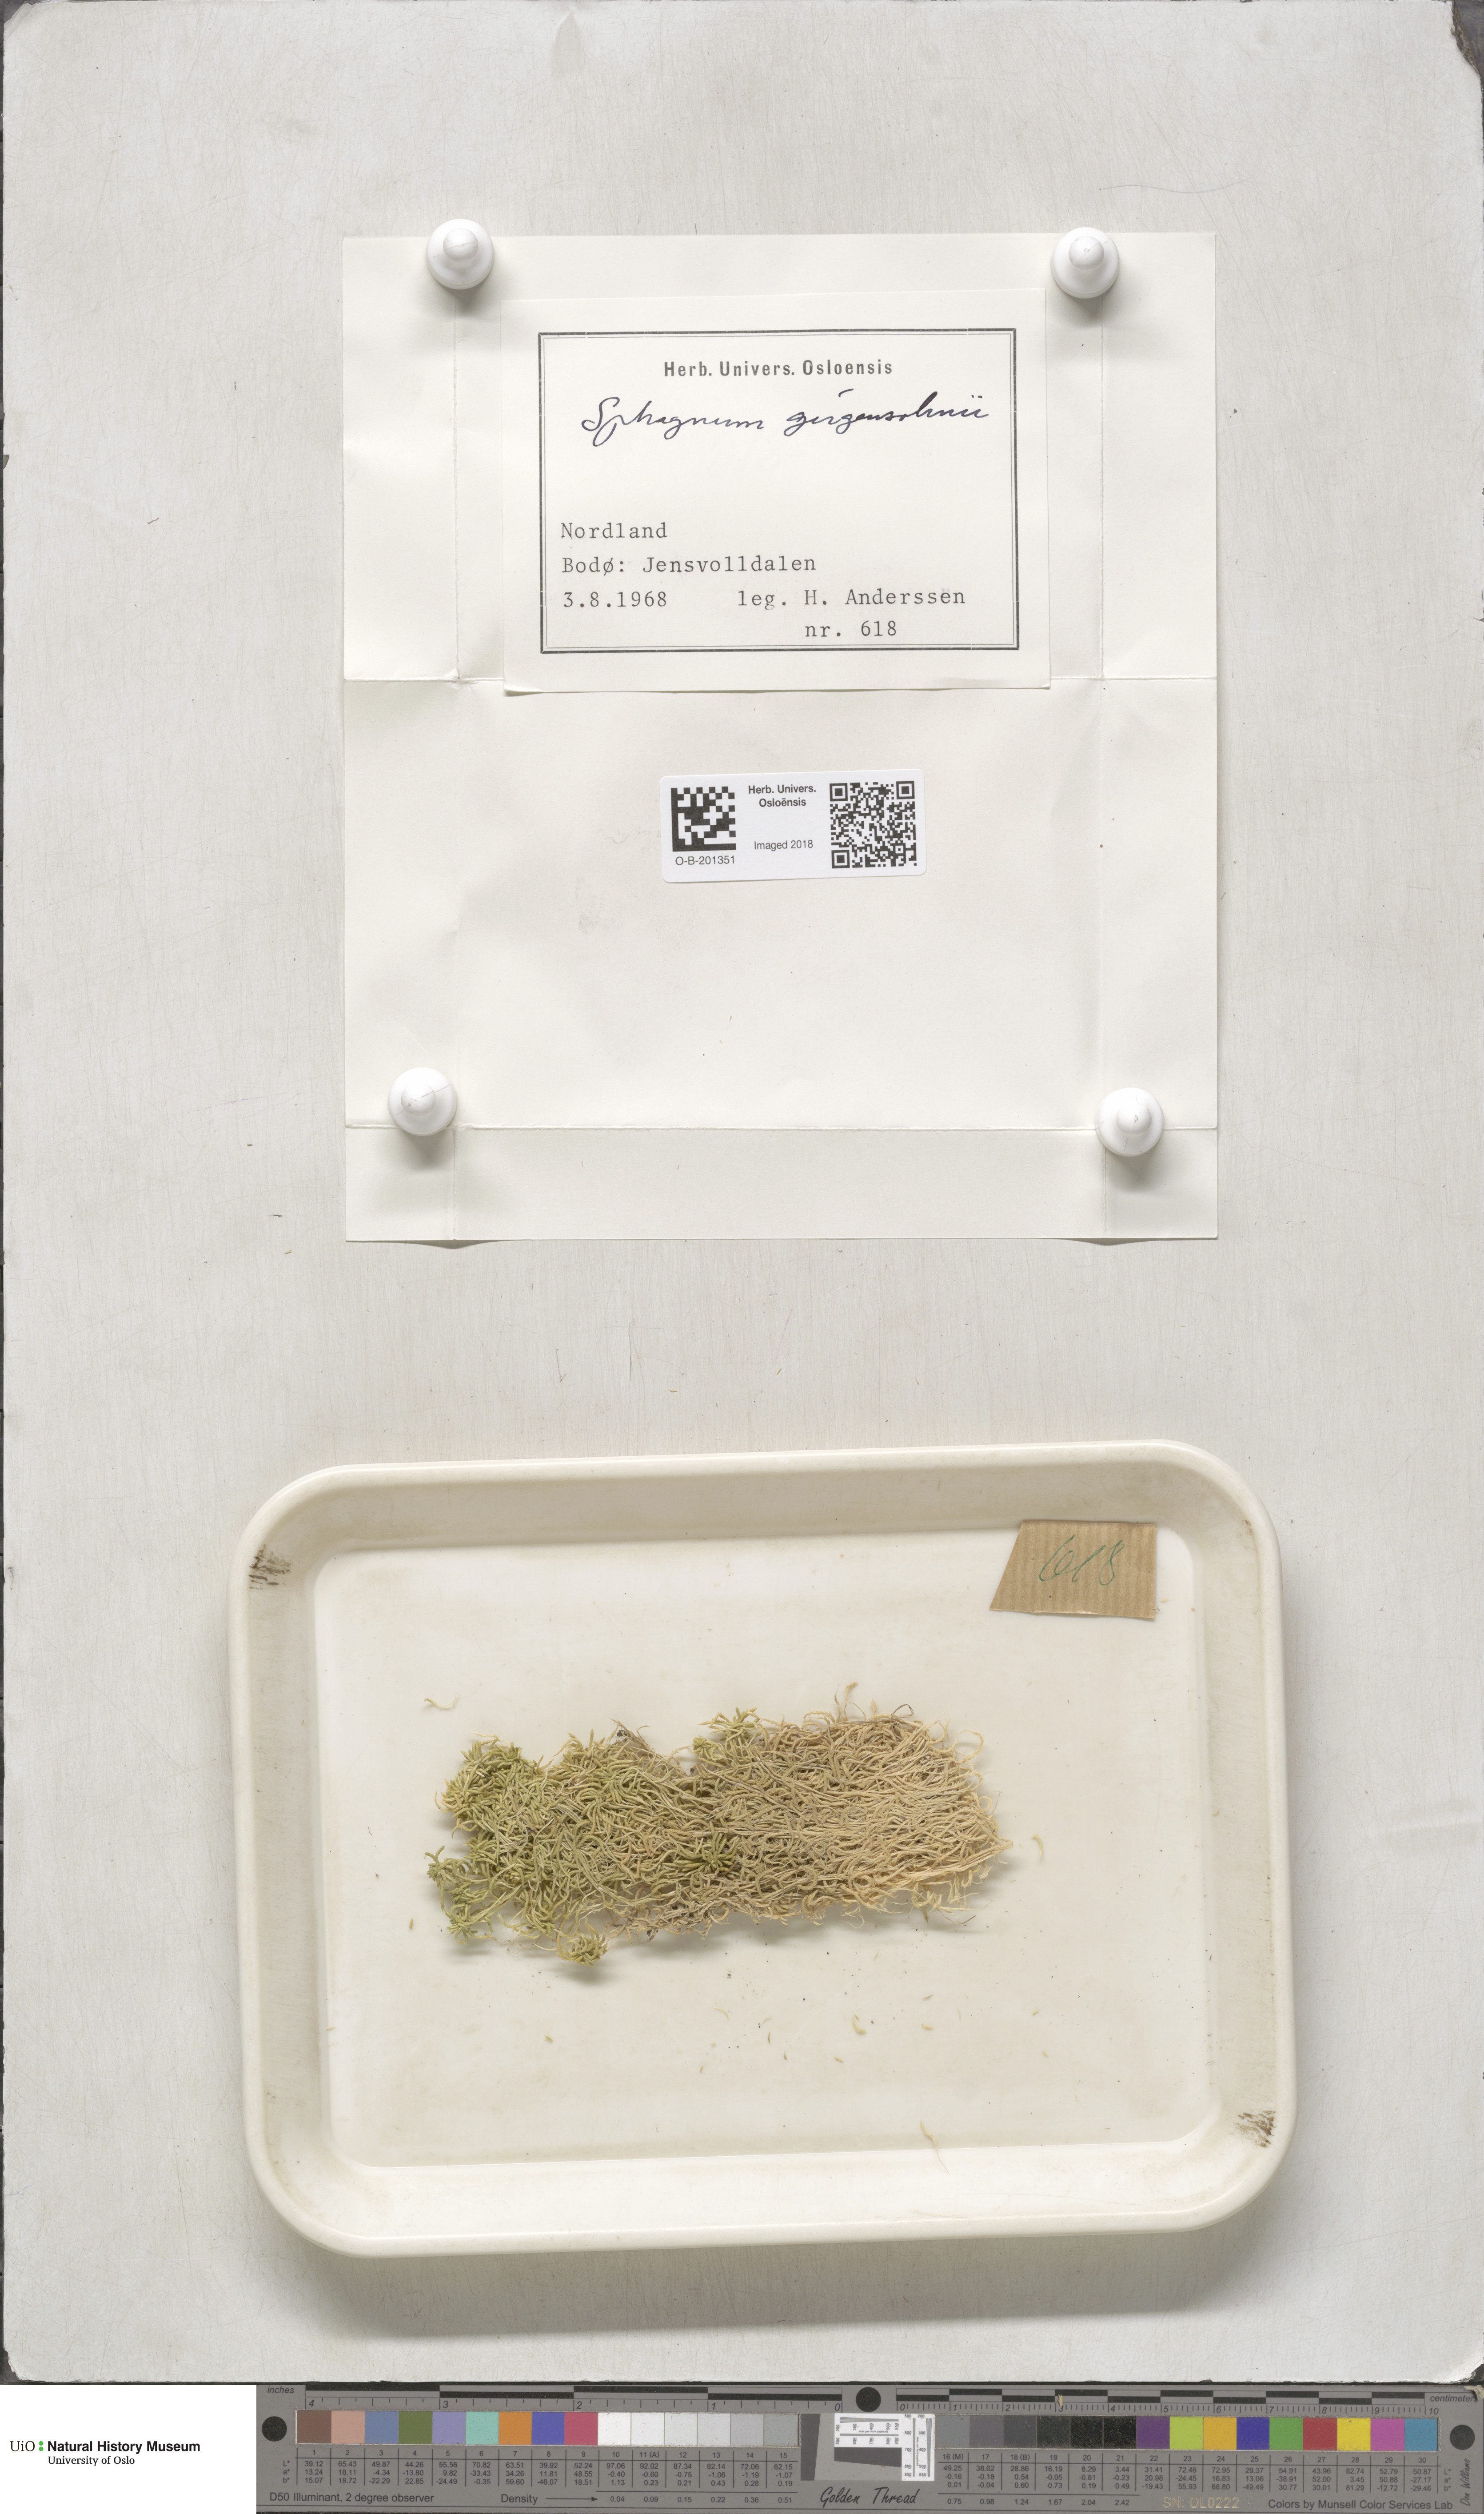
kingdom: Plantae
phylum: Bryophyta
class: Sphagnopsida
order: Sphagnales
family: Sphagnaceae
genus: Sphagnum
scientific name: Sphagnum girgensohnii
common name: Girgensohn's peat moss
